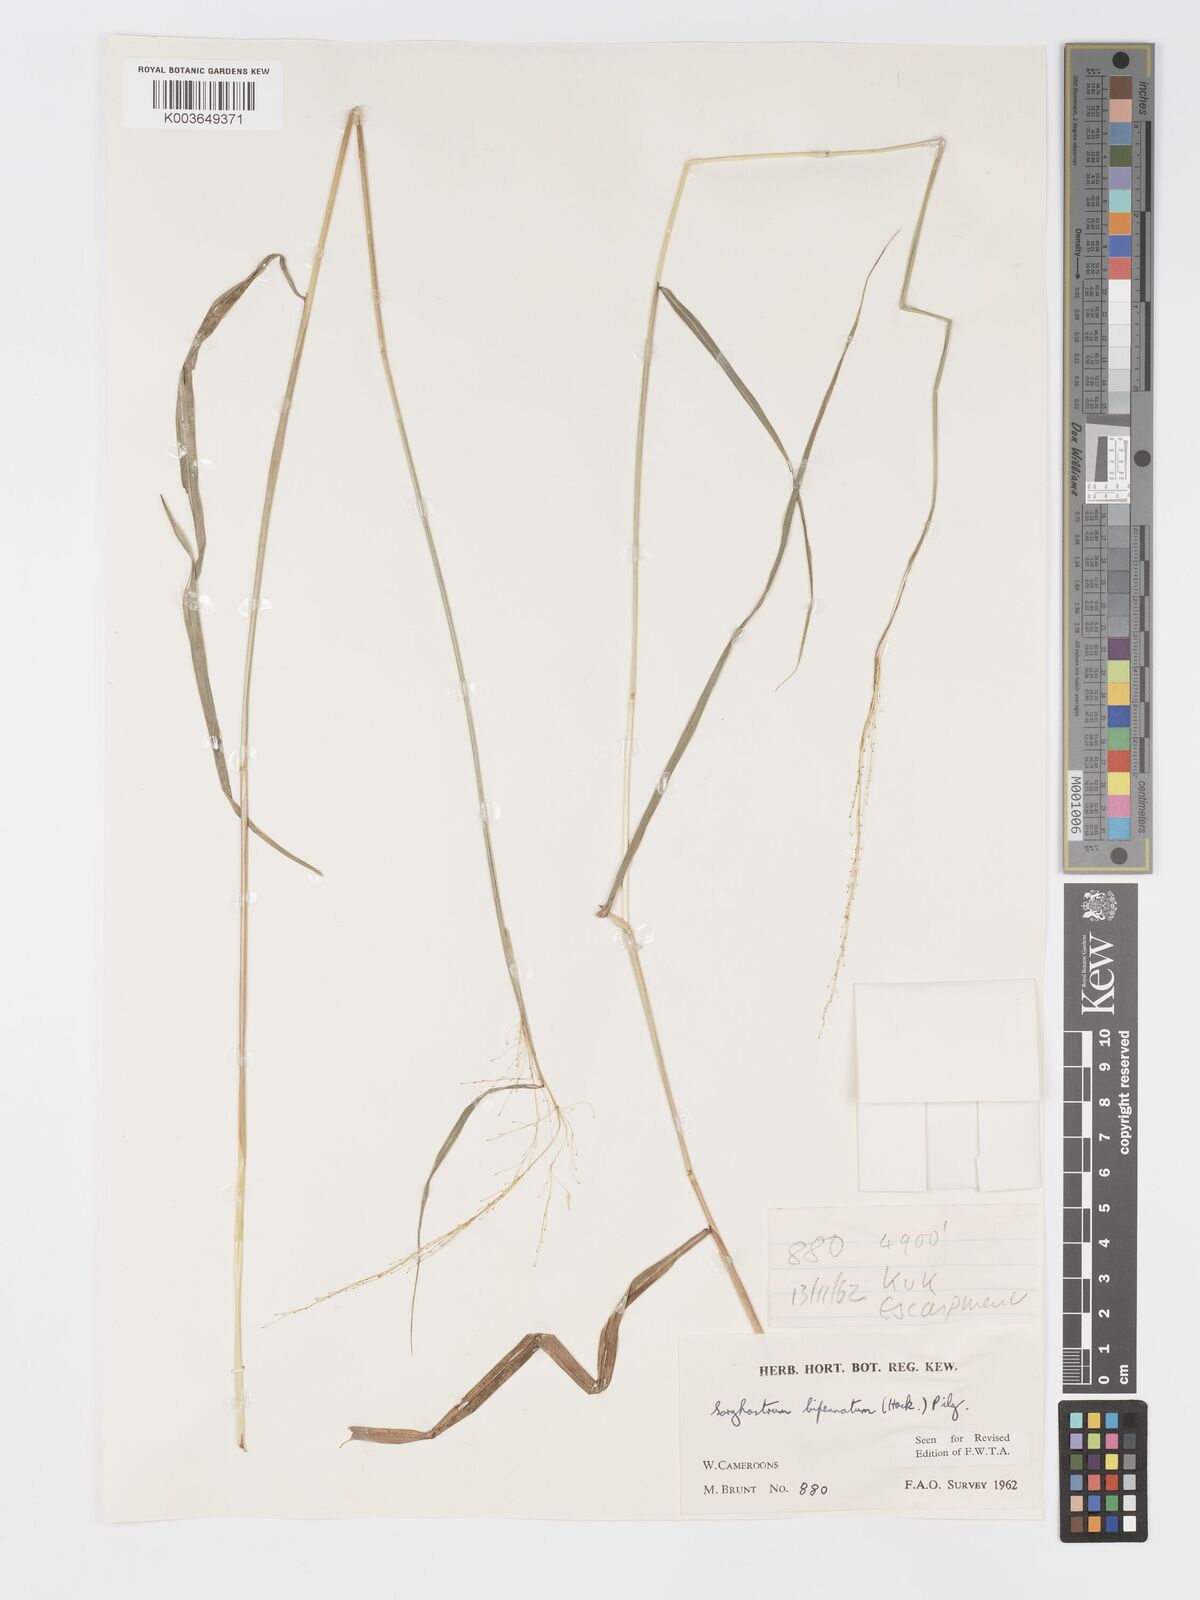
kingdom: Plantae
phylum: Tracheophyta
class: Liliopsida
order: Poales
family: Poaceae
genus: Sorghastrum
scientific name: Sorghastrum incompletum
